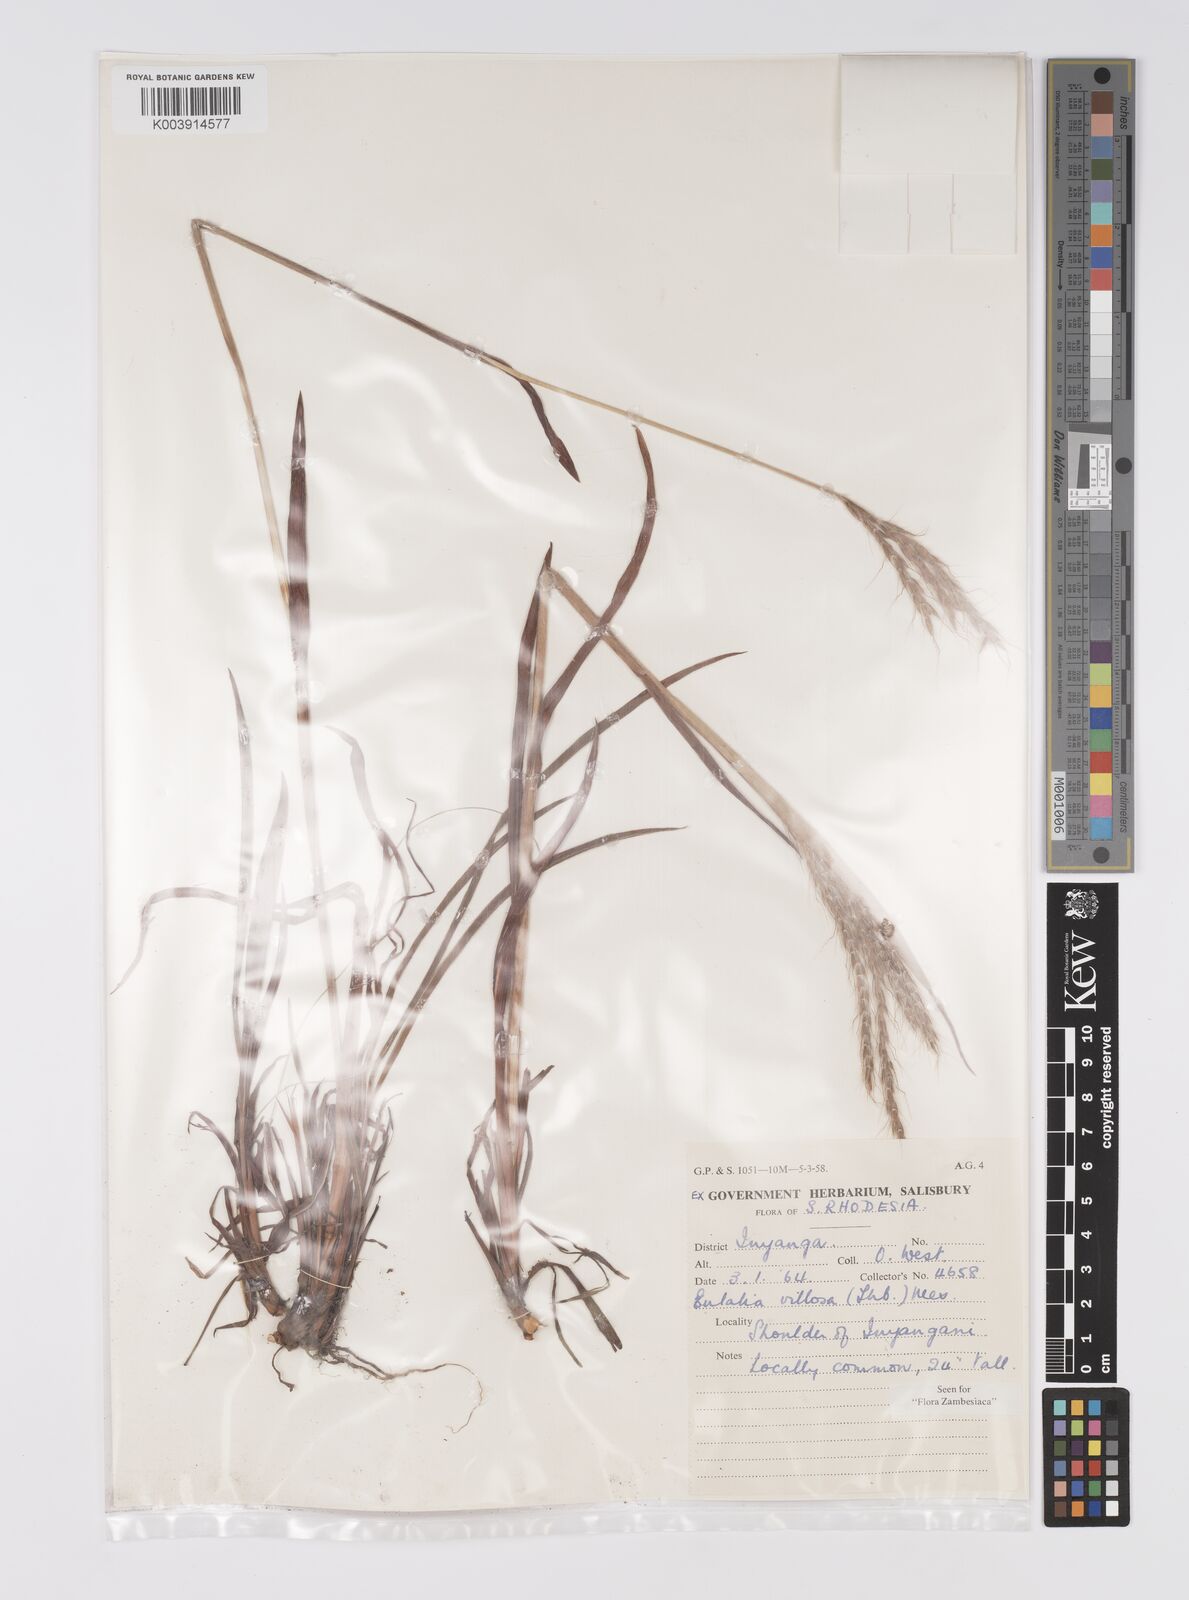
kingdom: Plantae
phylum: Tracheophyta
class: Liliopsida
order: Poales
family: Poaceae
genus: Eulalia
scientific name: Eulalia villosa
